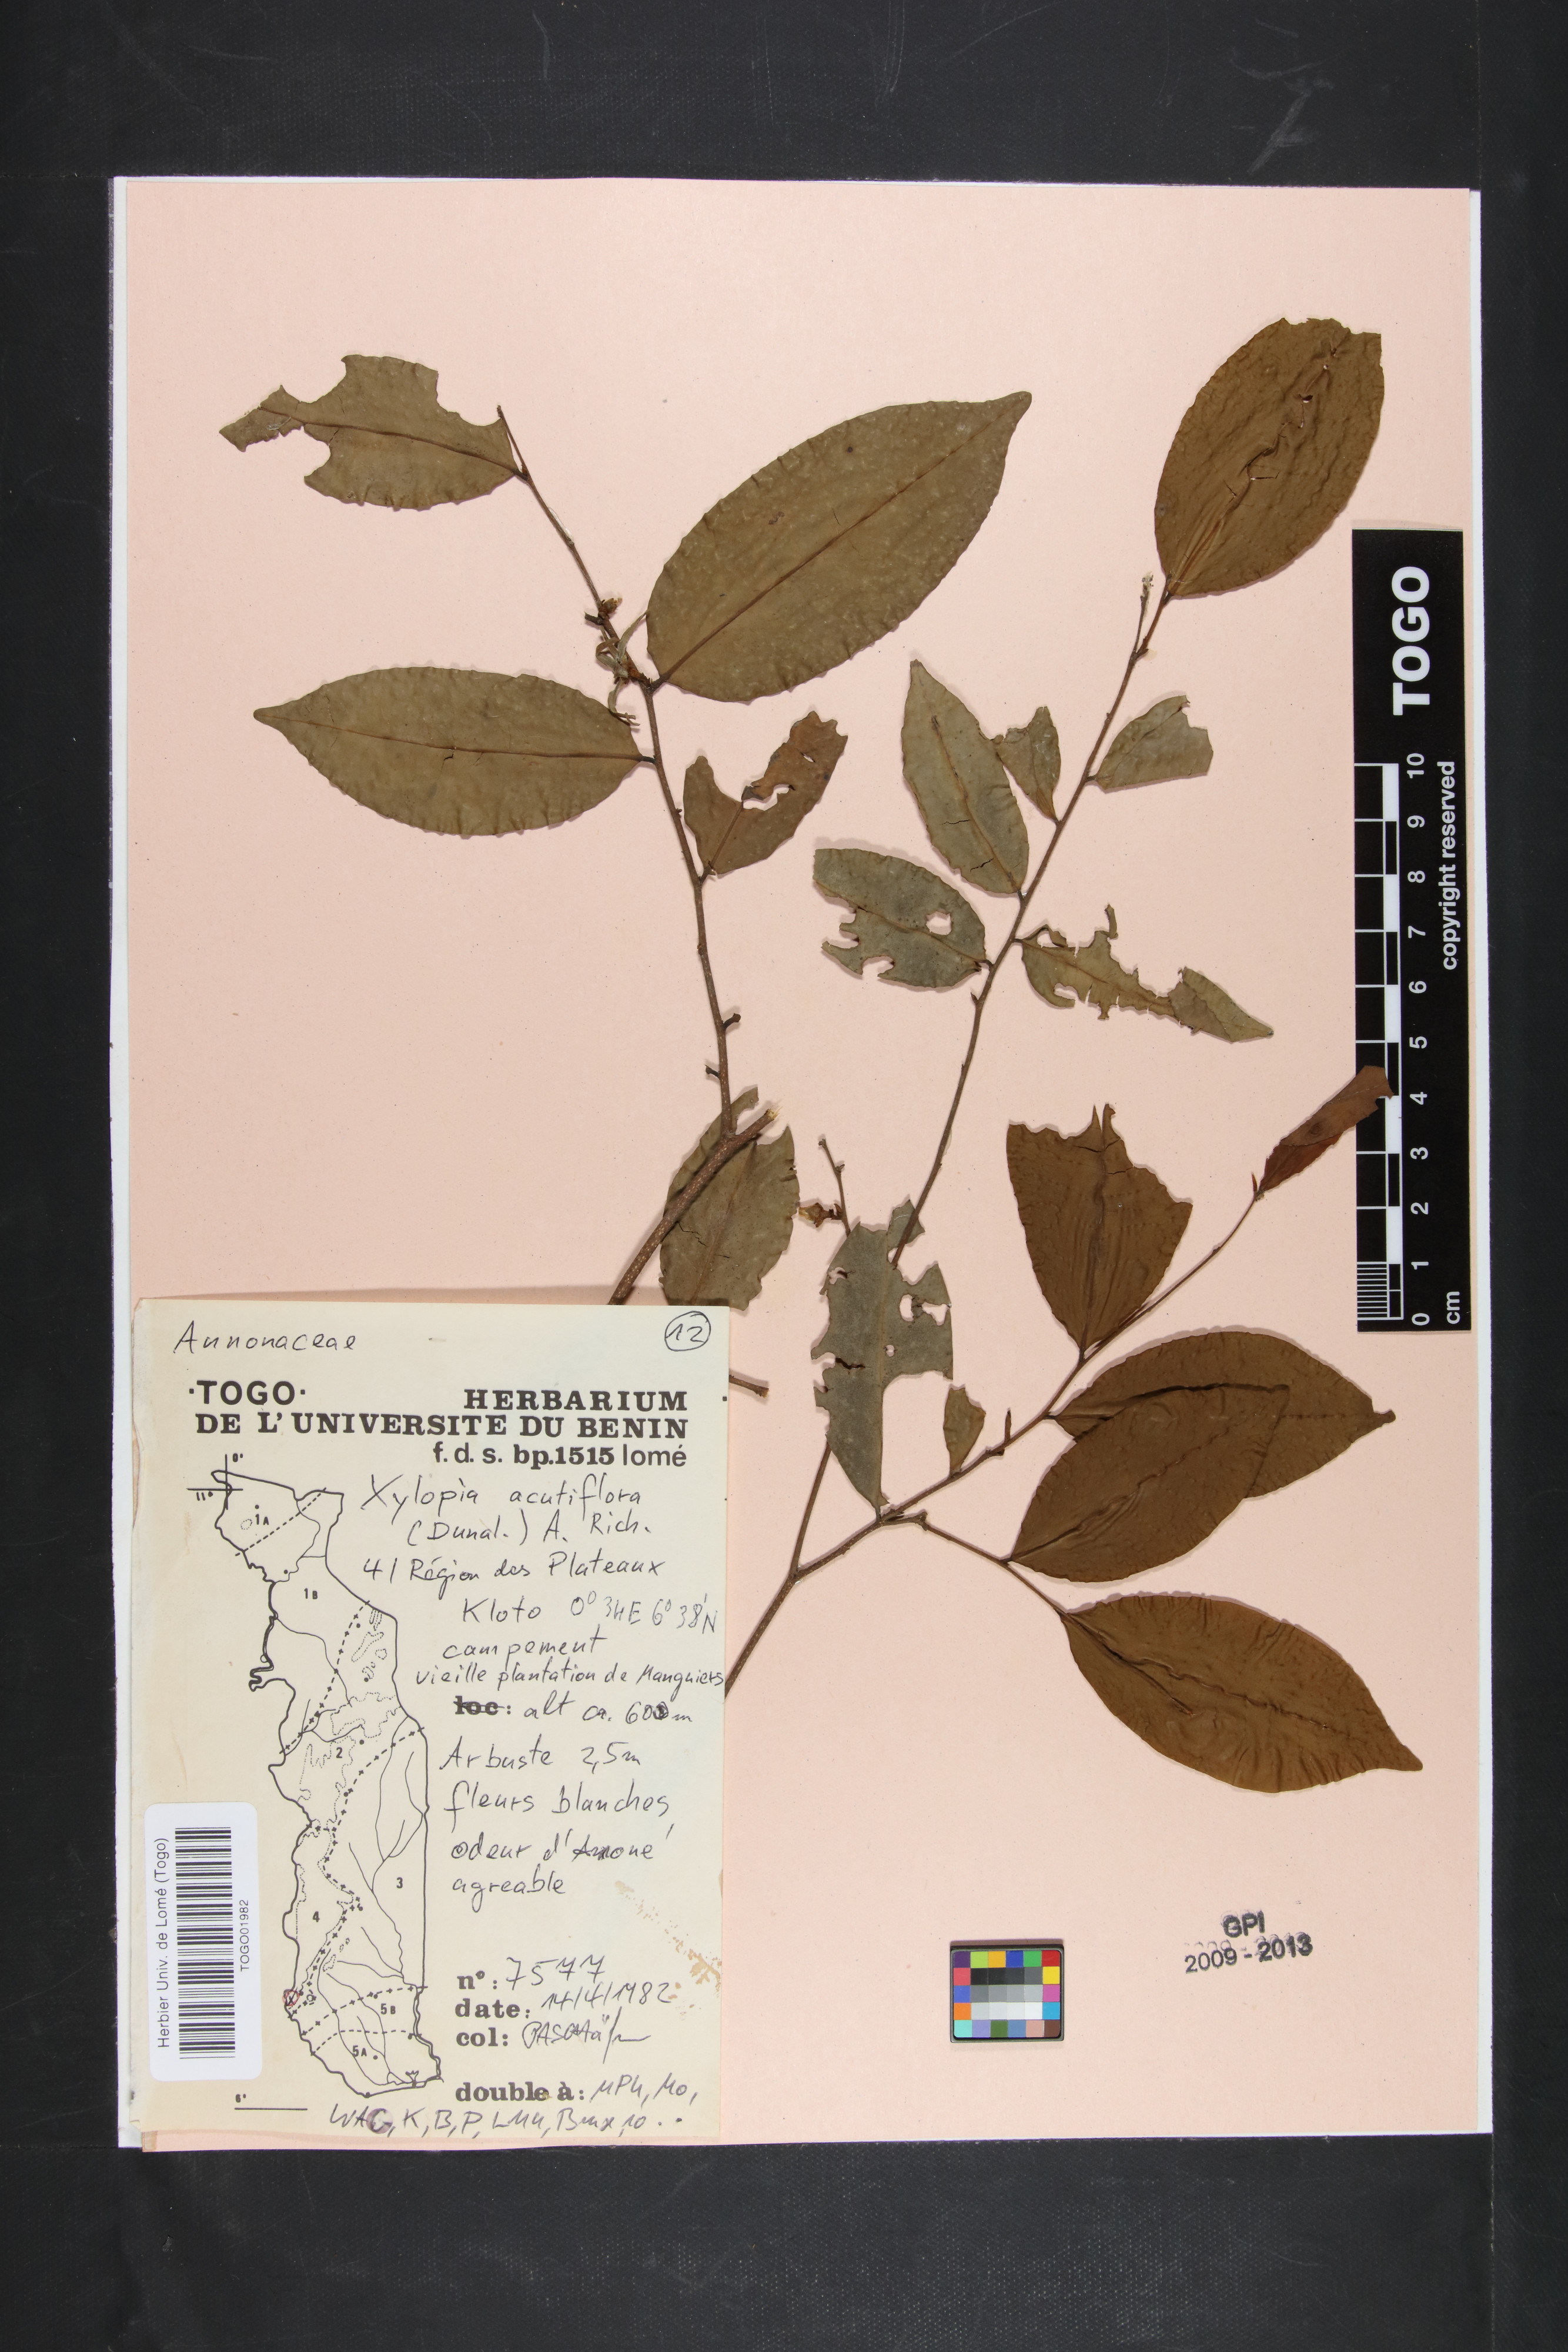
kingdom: Plantae
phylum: Tracheophyta
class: Magnoliopsida
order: Magnoliales
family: Annonaceae
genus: Xylopia
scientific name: Xylopia acutiflora
